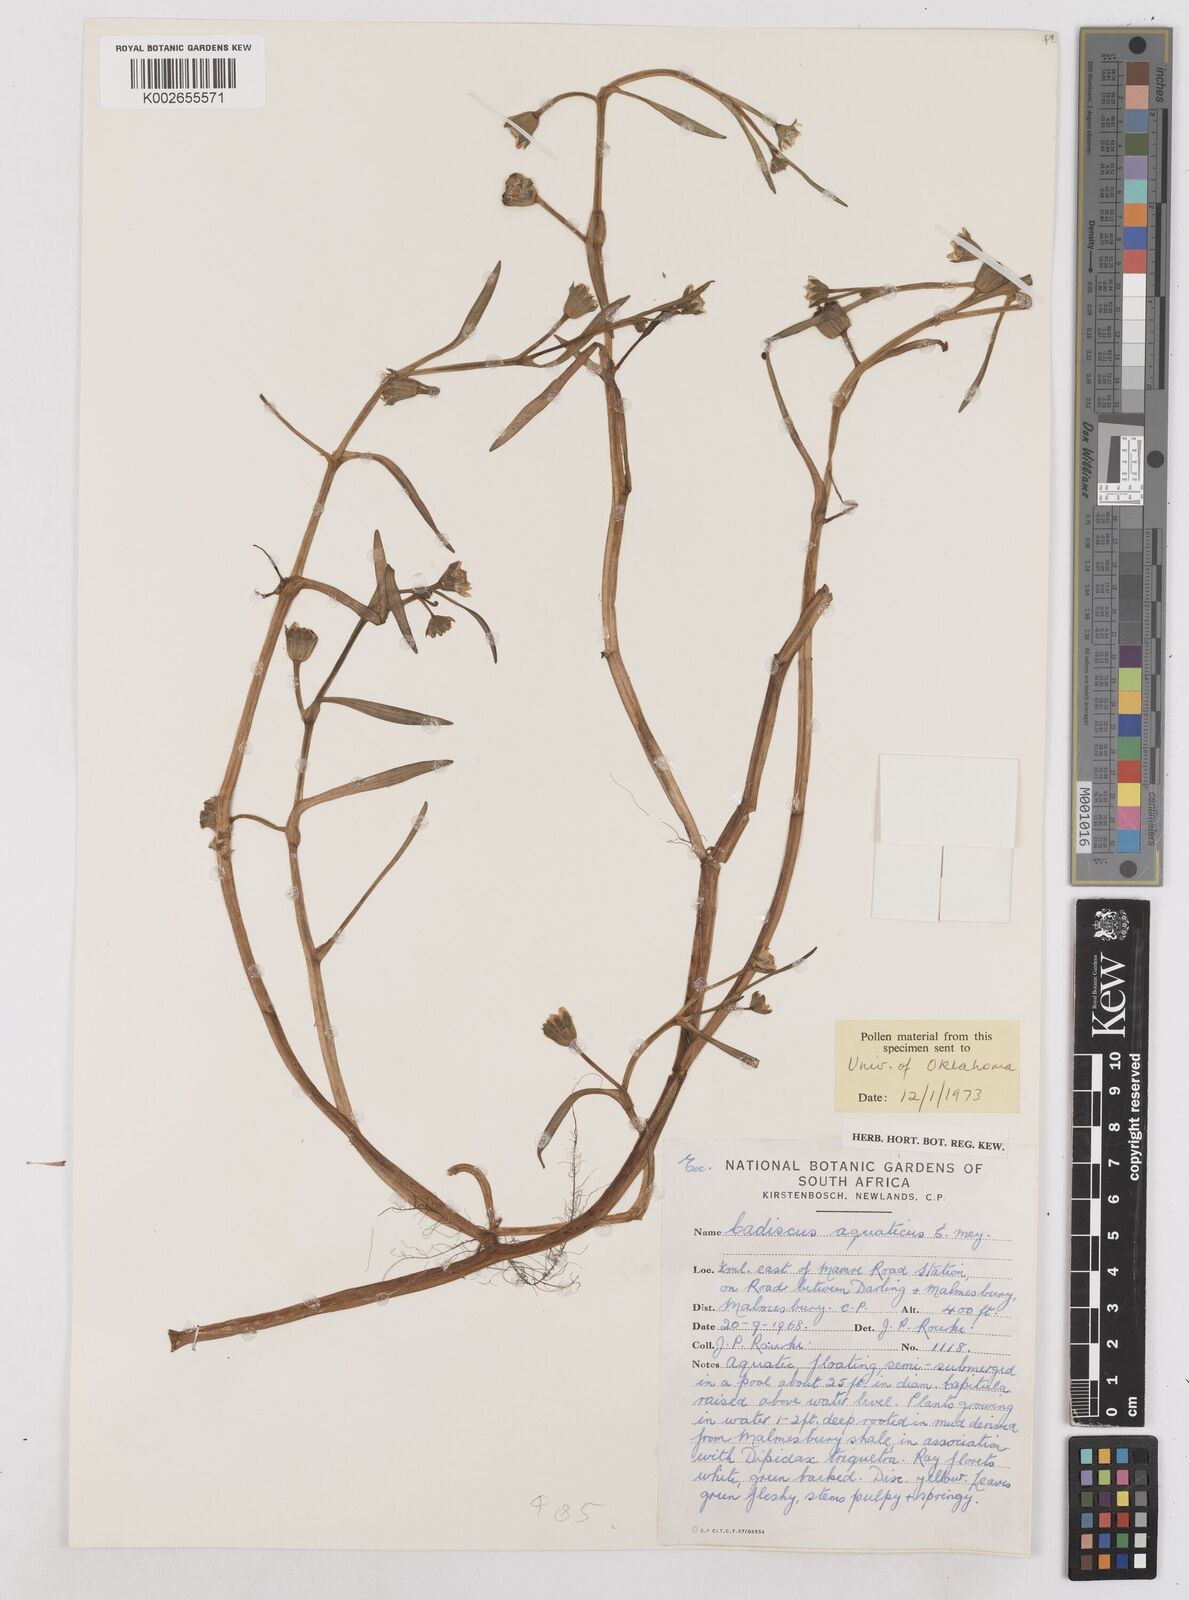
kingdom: Plantae
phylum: Tracheophyta
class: Magnoliopsida
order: Asterales
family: Asteraceae
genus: Cadiscus
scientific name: Cadiscus aquaticus
